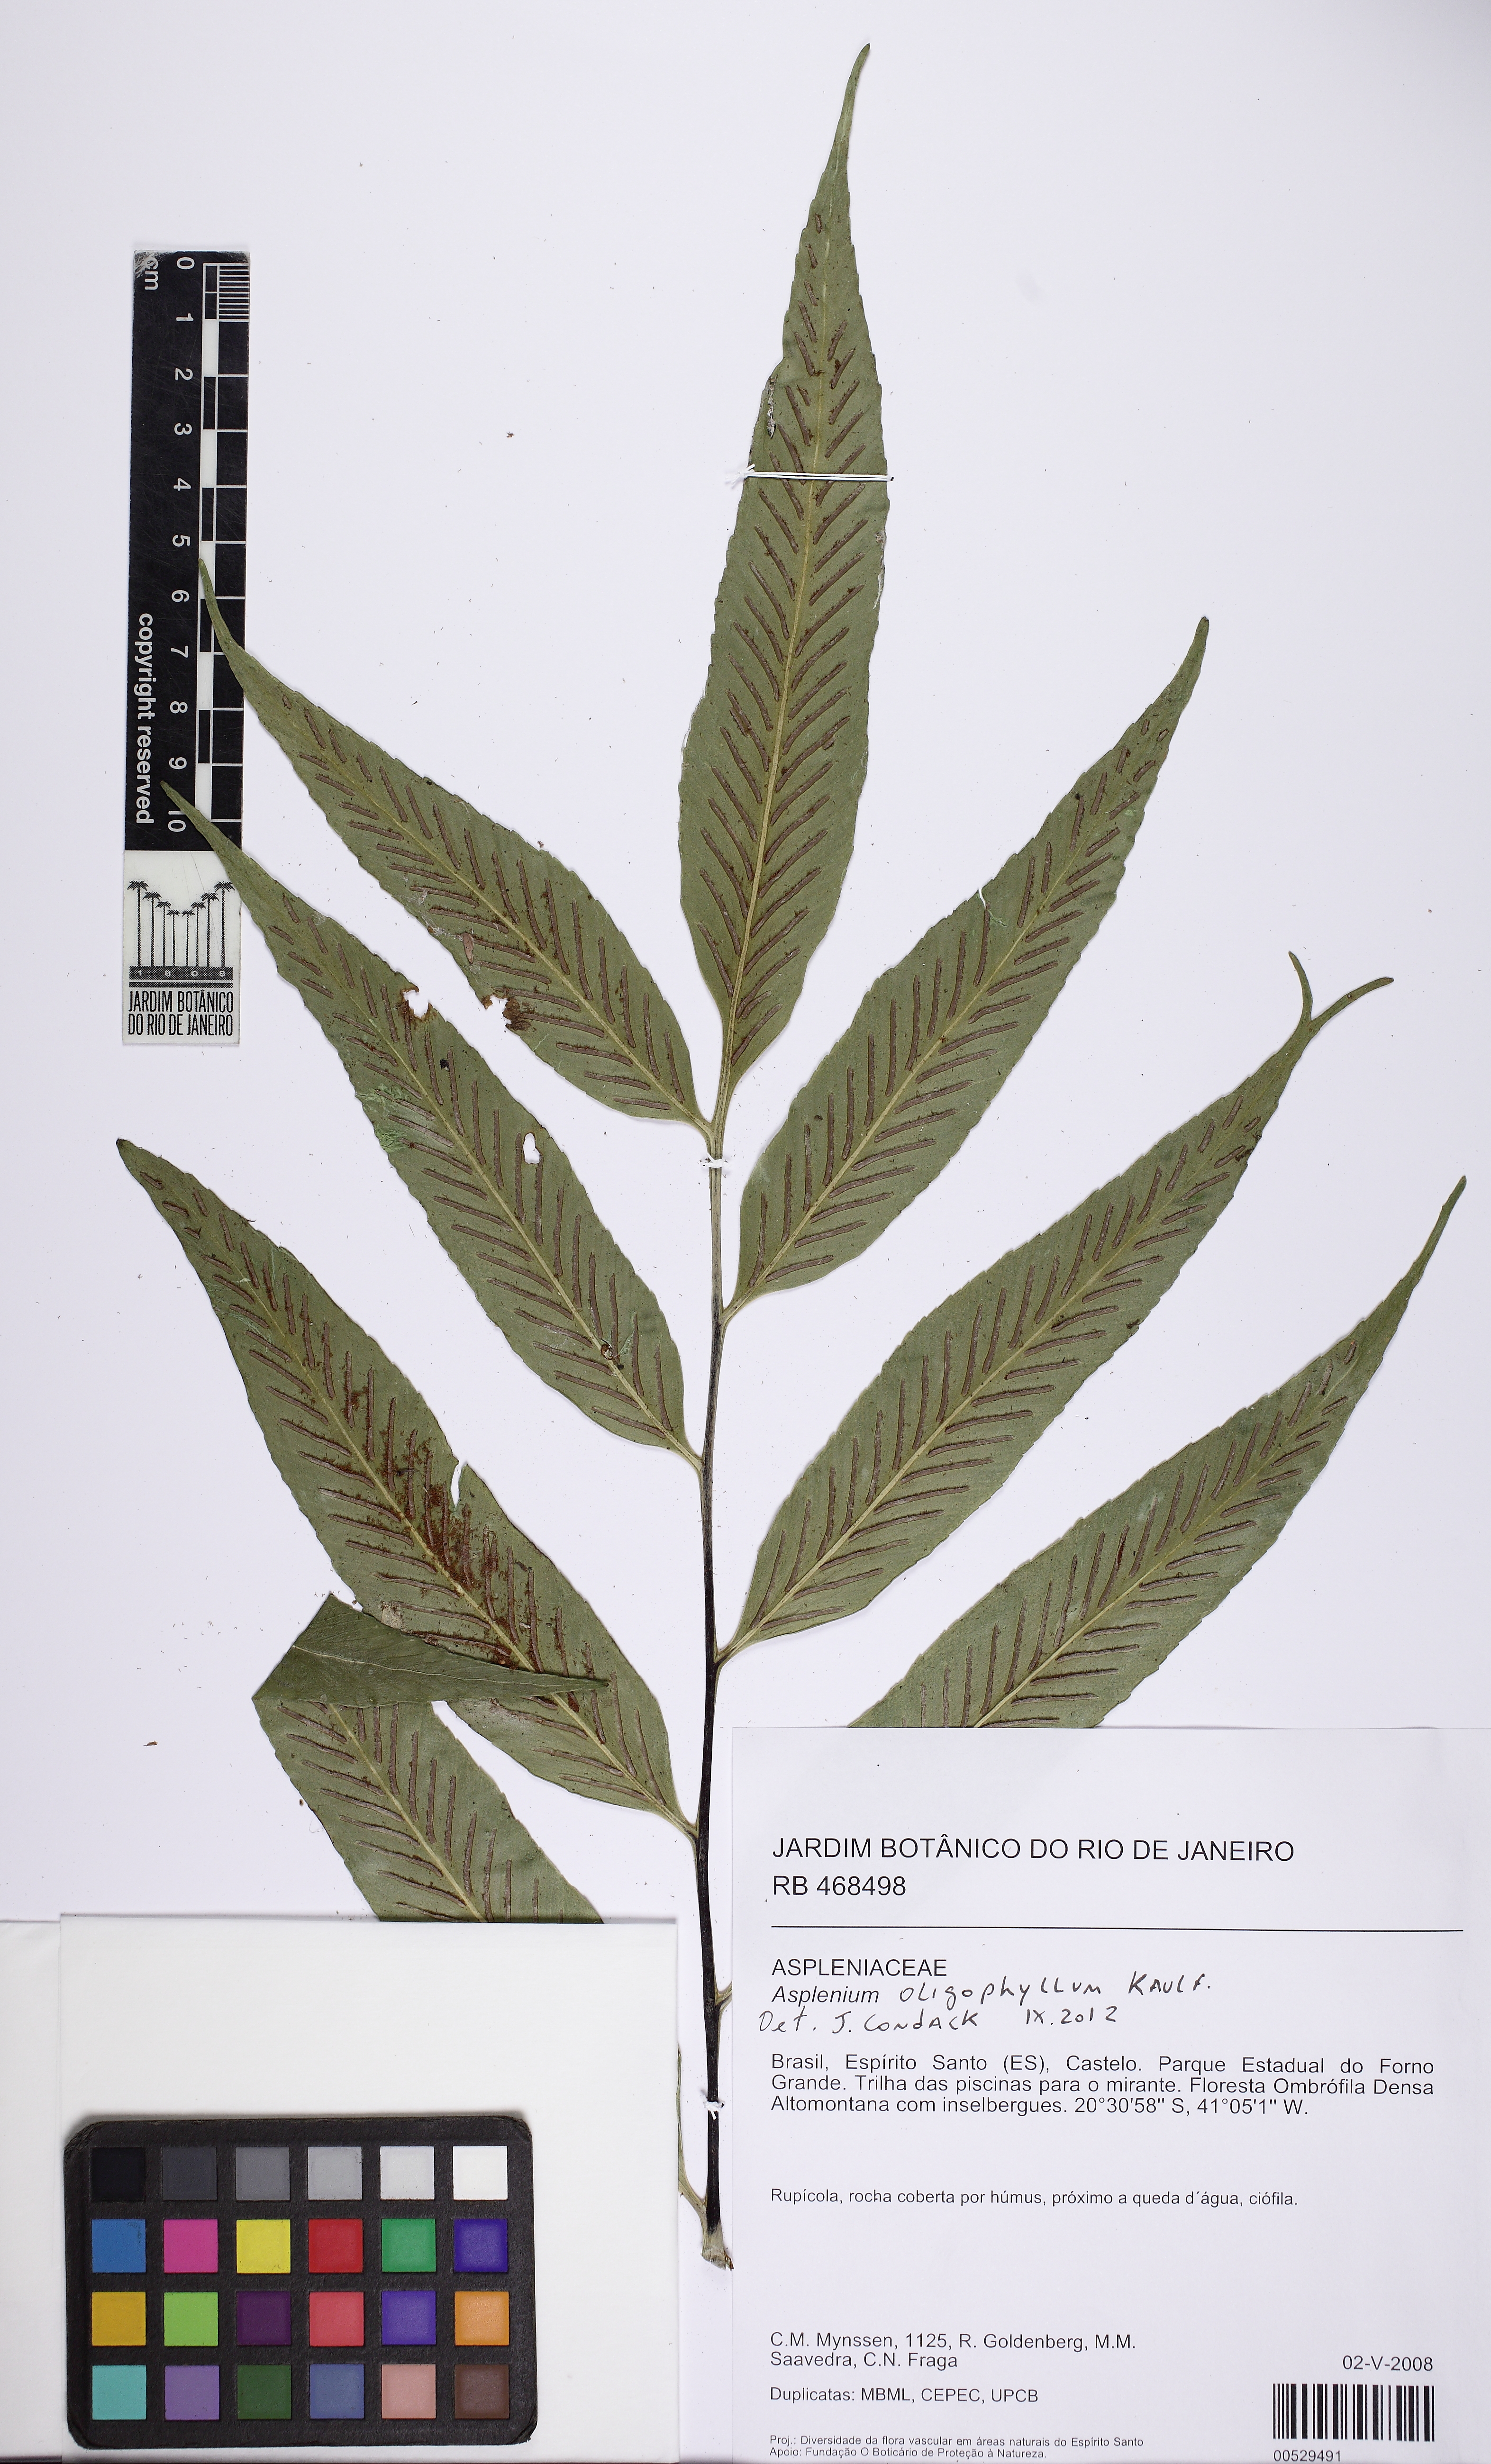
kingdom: Plantae
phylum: Tracheophyta
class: Polypodiopsida
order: Polypodiales
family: Aspleniaceae
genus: Asplenium
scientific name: Asplenium oligophyllum
